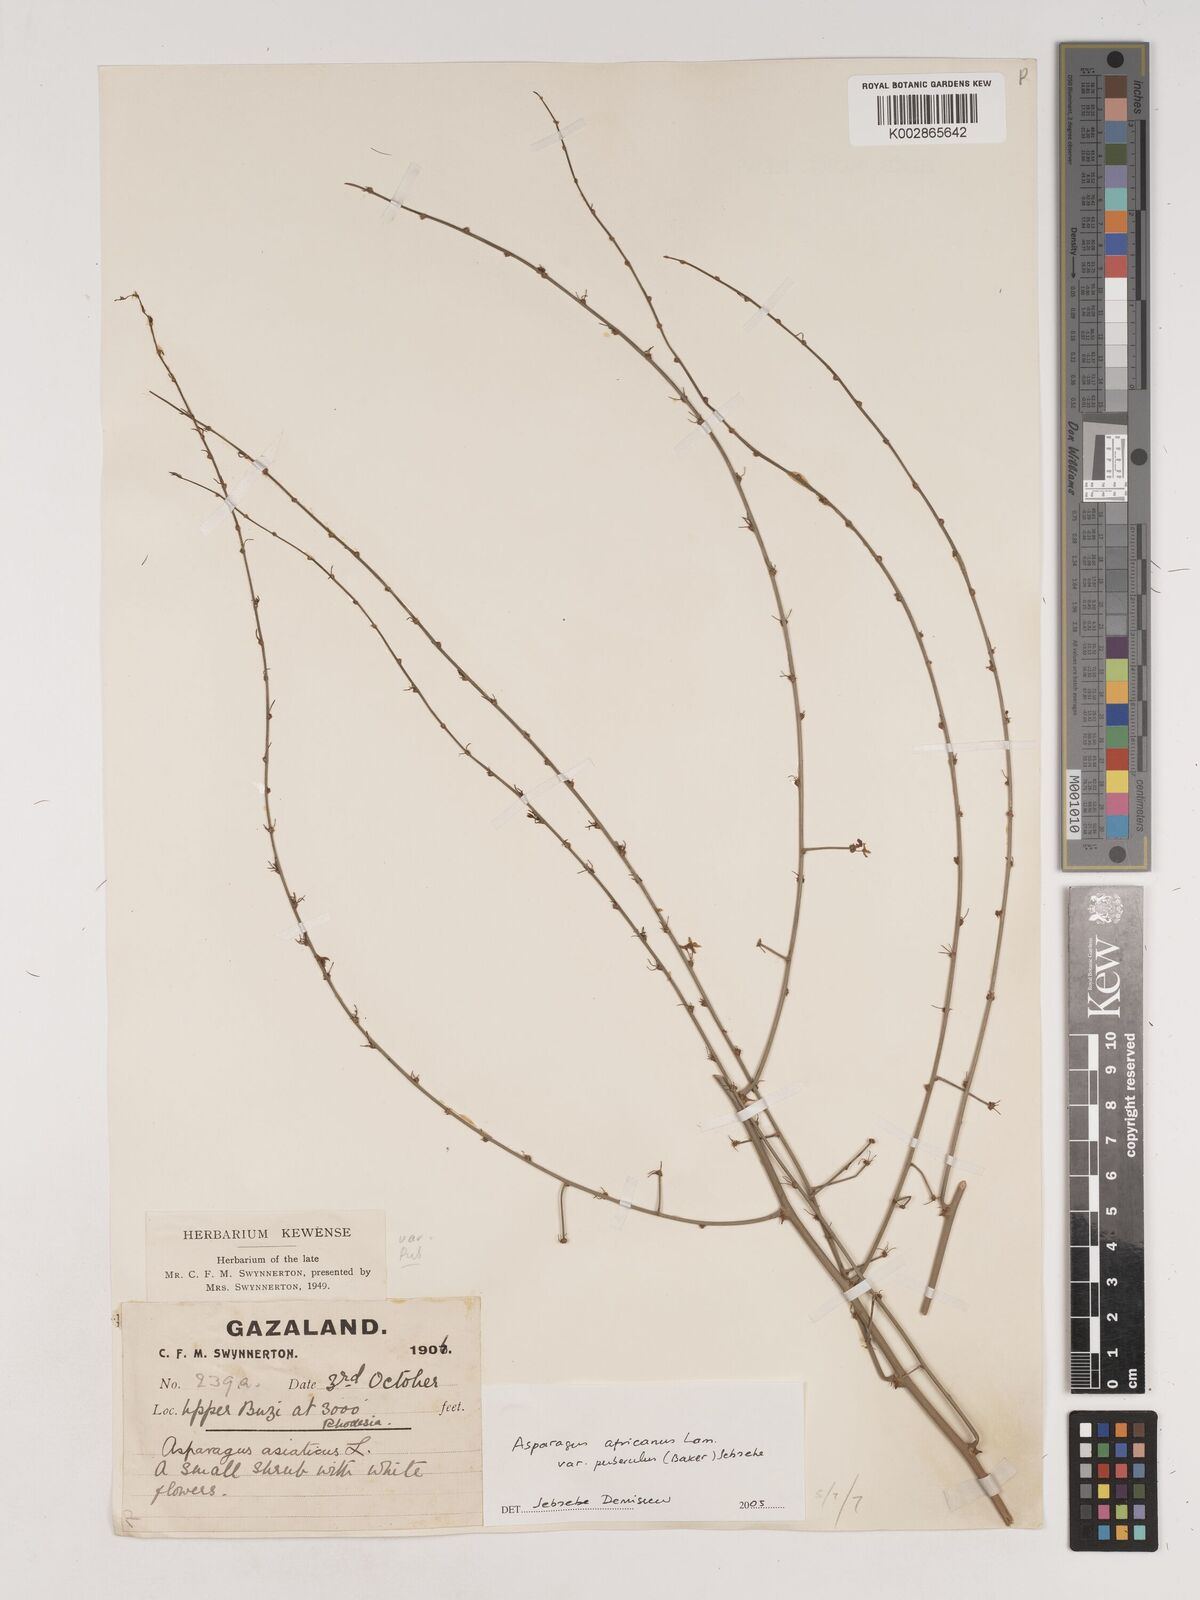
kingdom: Plantae
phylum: Tracheophyta
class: Liliopsida
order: Asparagales
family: Asparagaceae
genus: Asparagus
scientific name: Asparagus africanus
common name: Asparagus-fern
